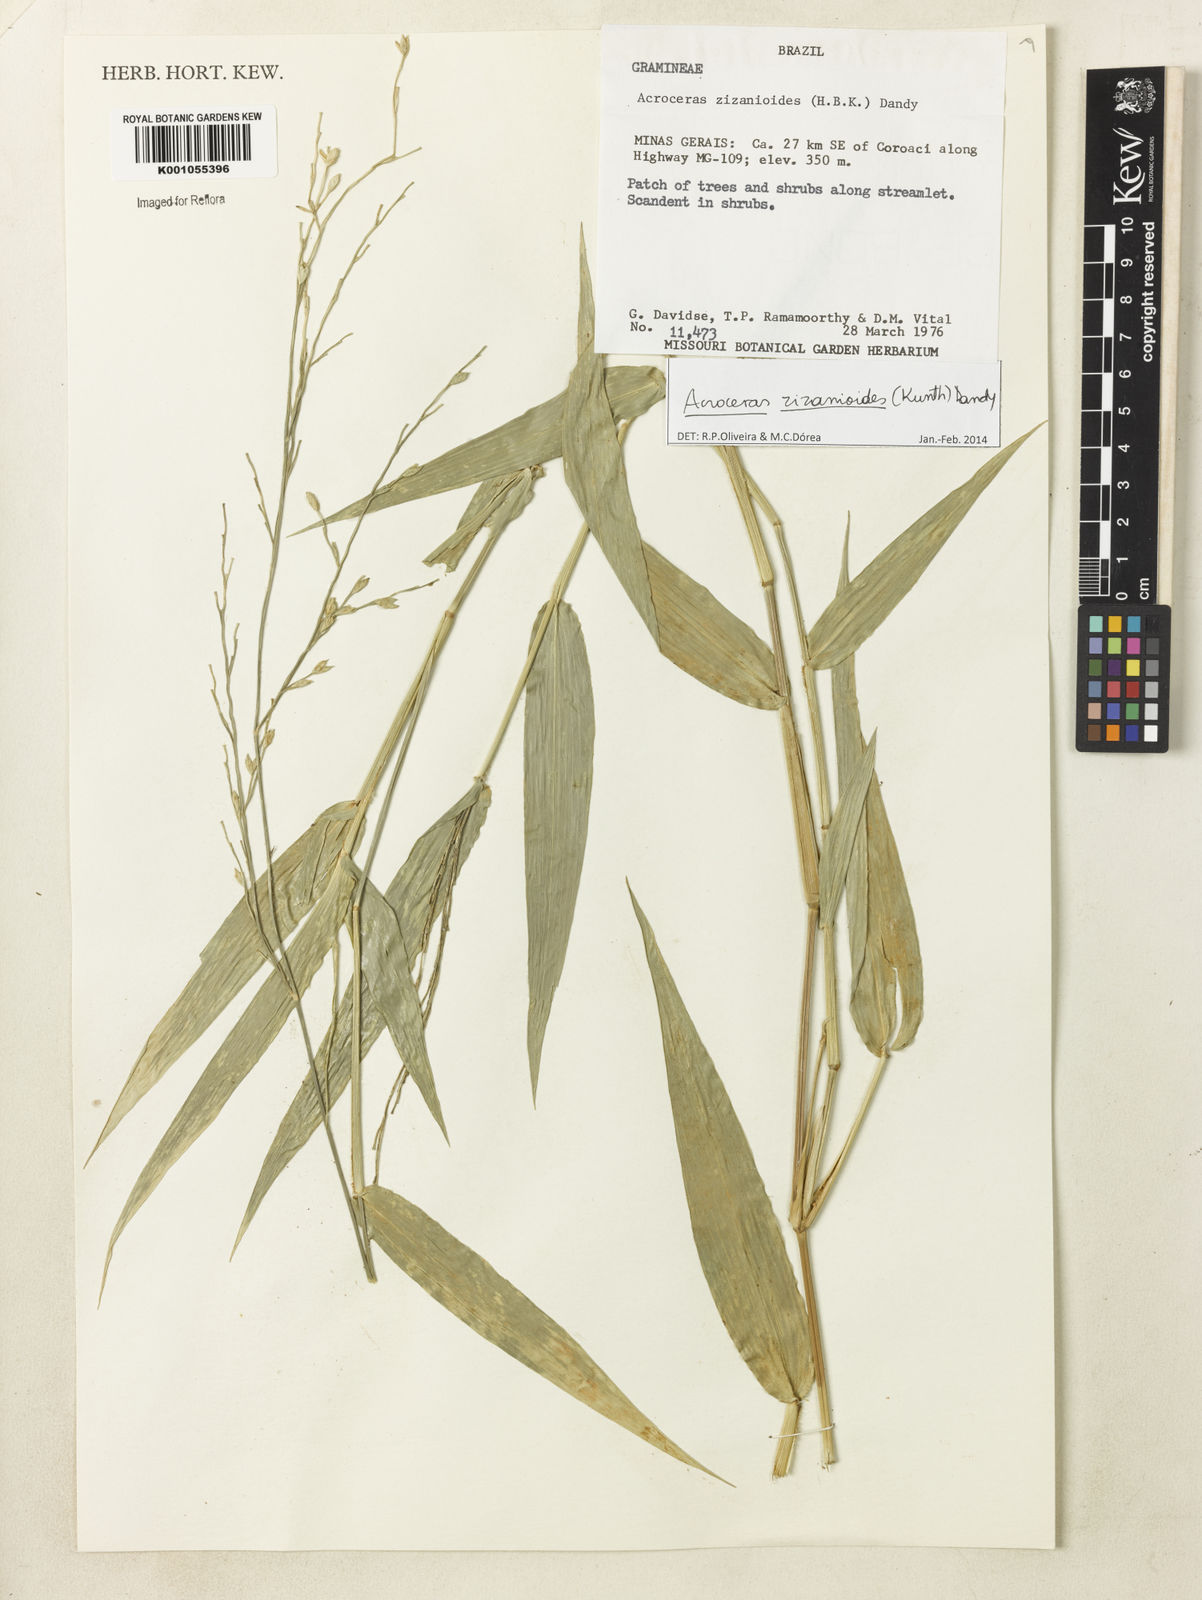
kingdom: Plantae
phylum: Tracheophyta
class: Liliopsida
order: Poales
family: Poaceae
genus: Acroceras
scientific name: Acroceras zizanioides
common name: Oat grass
